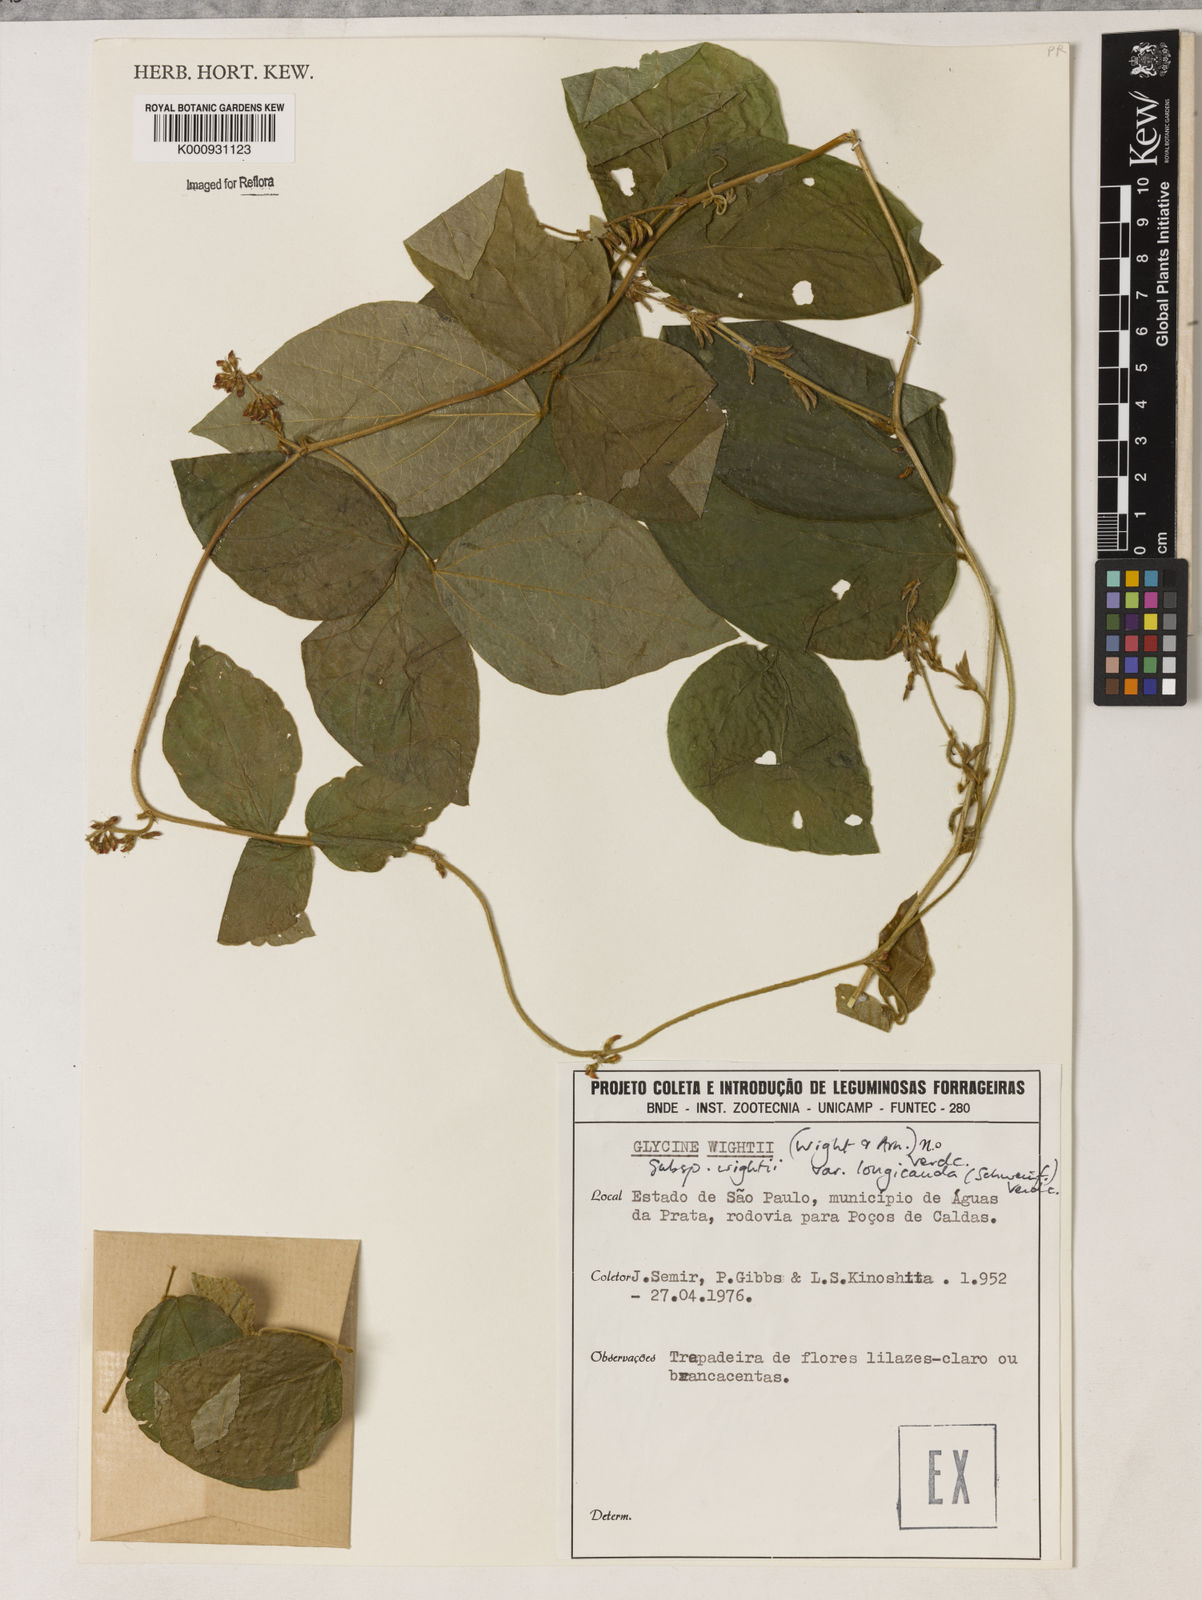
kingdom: Plantae
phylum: Tracheophyta
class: Magnoliopsida
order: Fabales
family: Fabaceae
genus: Neonotonia
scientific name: Neonotonia wightii
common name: Perennial soybean
